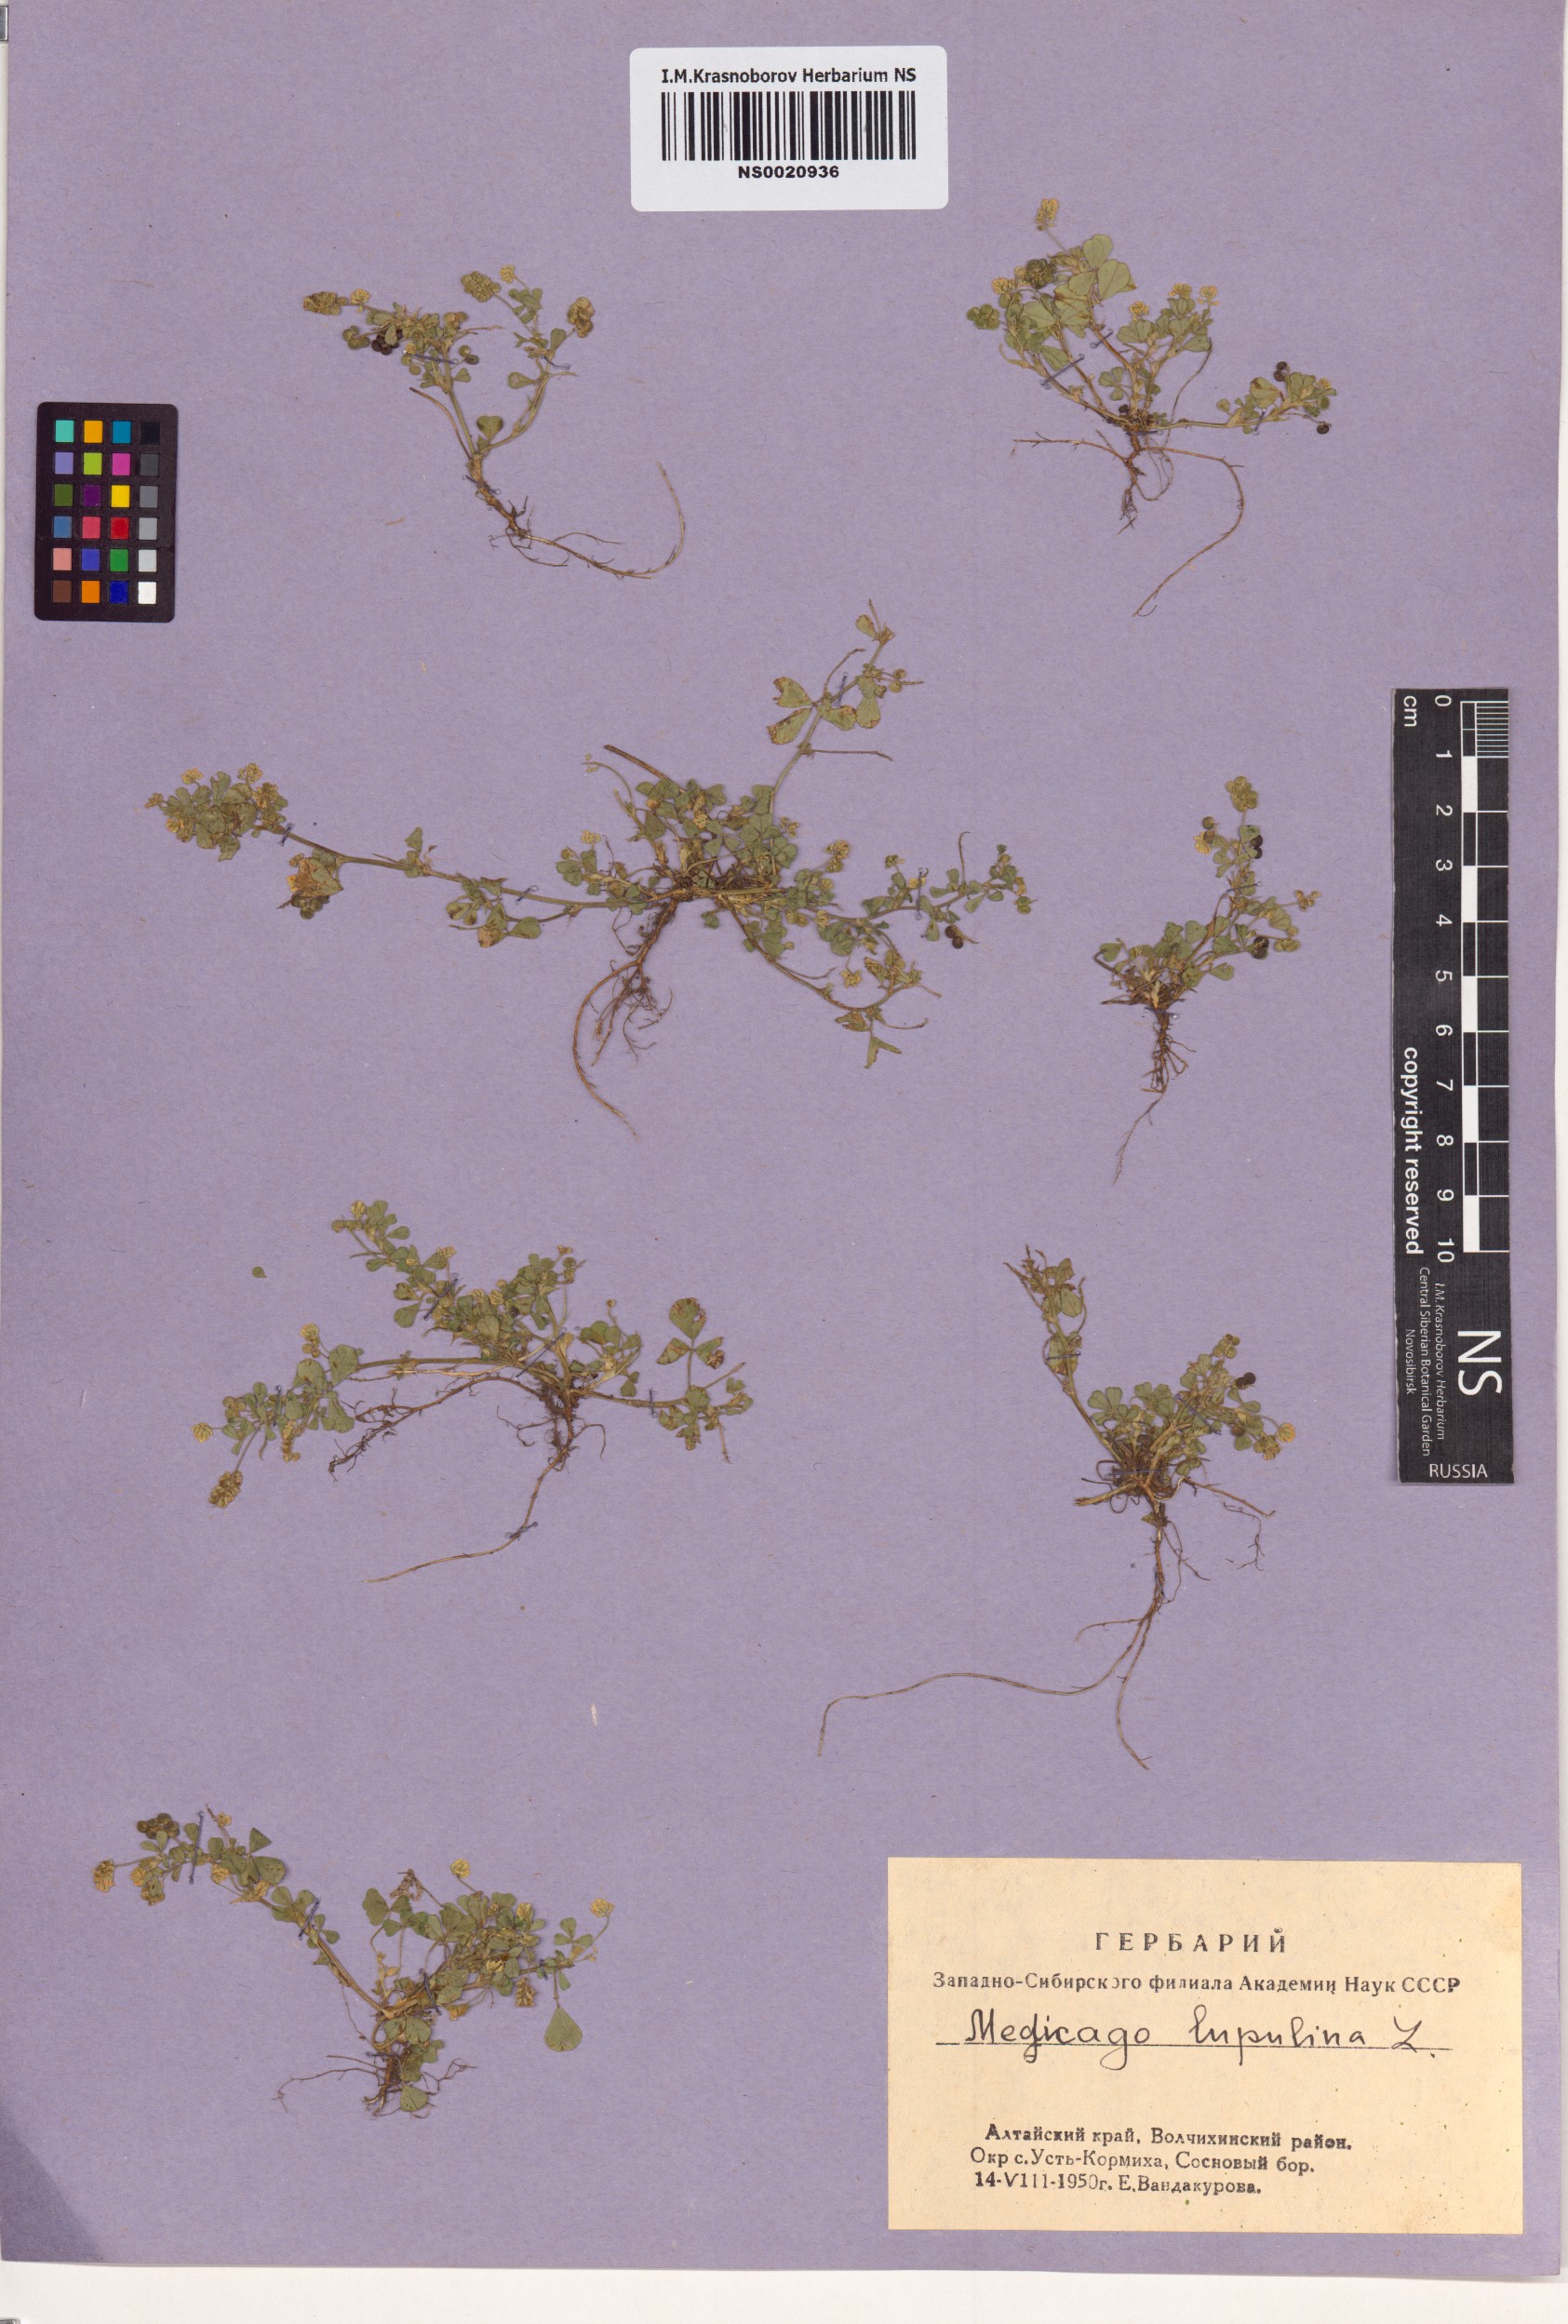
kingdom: Plantae
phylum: Tracheophyta
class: Magnoliopsida
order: Fabales
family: Fabaceae
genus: Medicago
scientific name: Medicago lupulina
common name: Black medick
